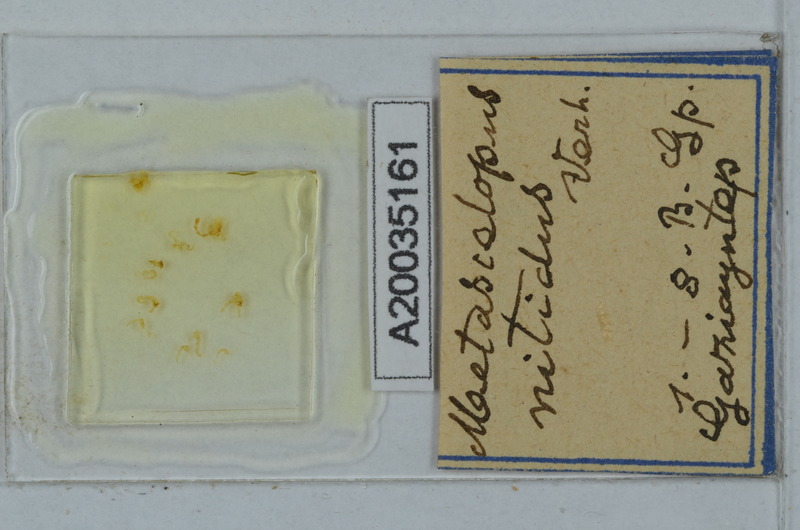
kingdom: Animalia
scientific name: Animalia
